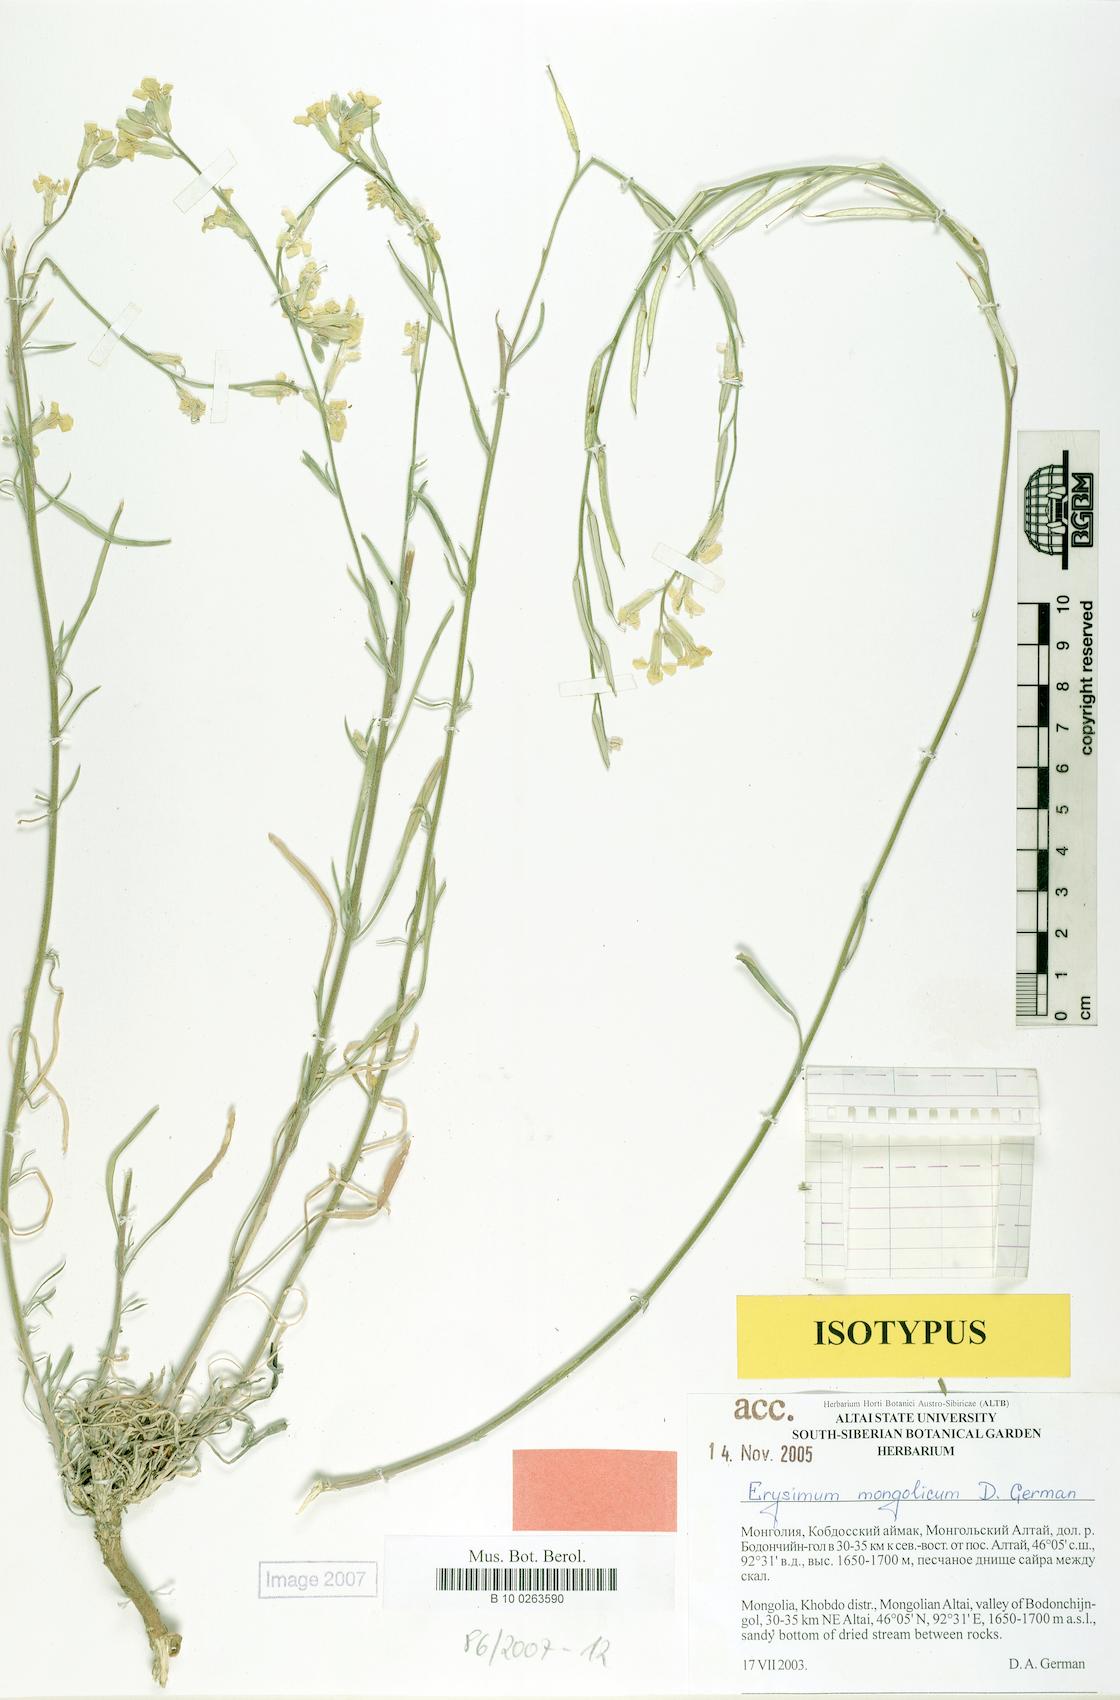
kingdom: Plantae
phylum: Tracheophyta
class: Magnoliopsida
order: Brassicales
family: Brassicaceae
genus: Erysimum
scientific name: Erysimum mongolicum
